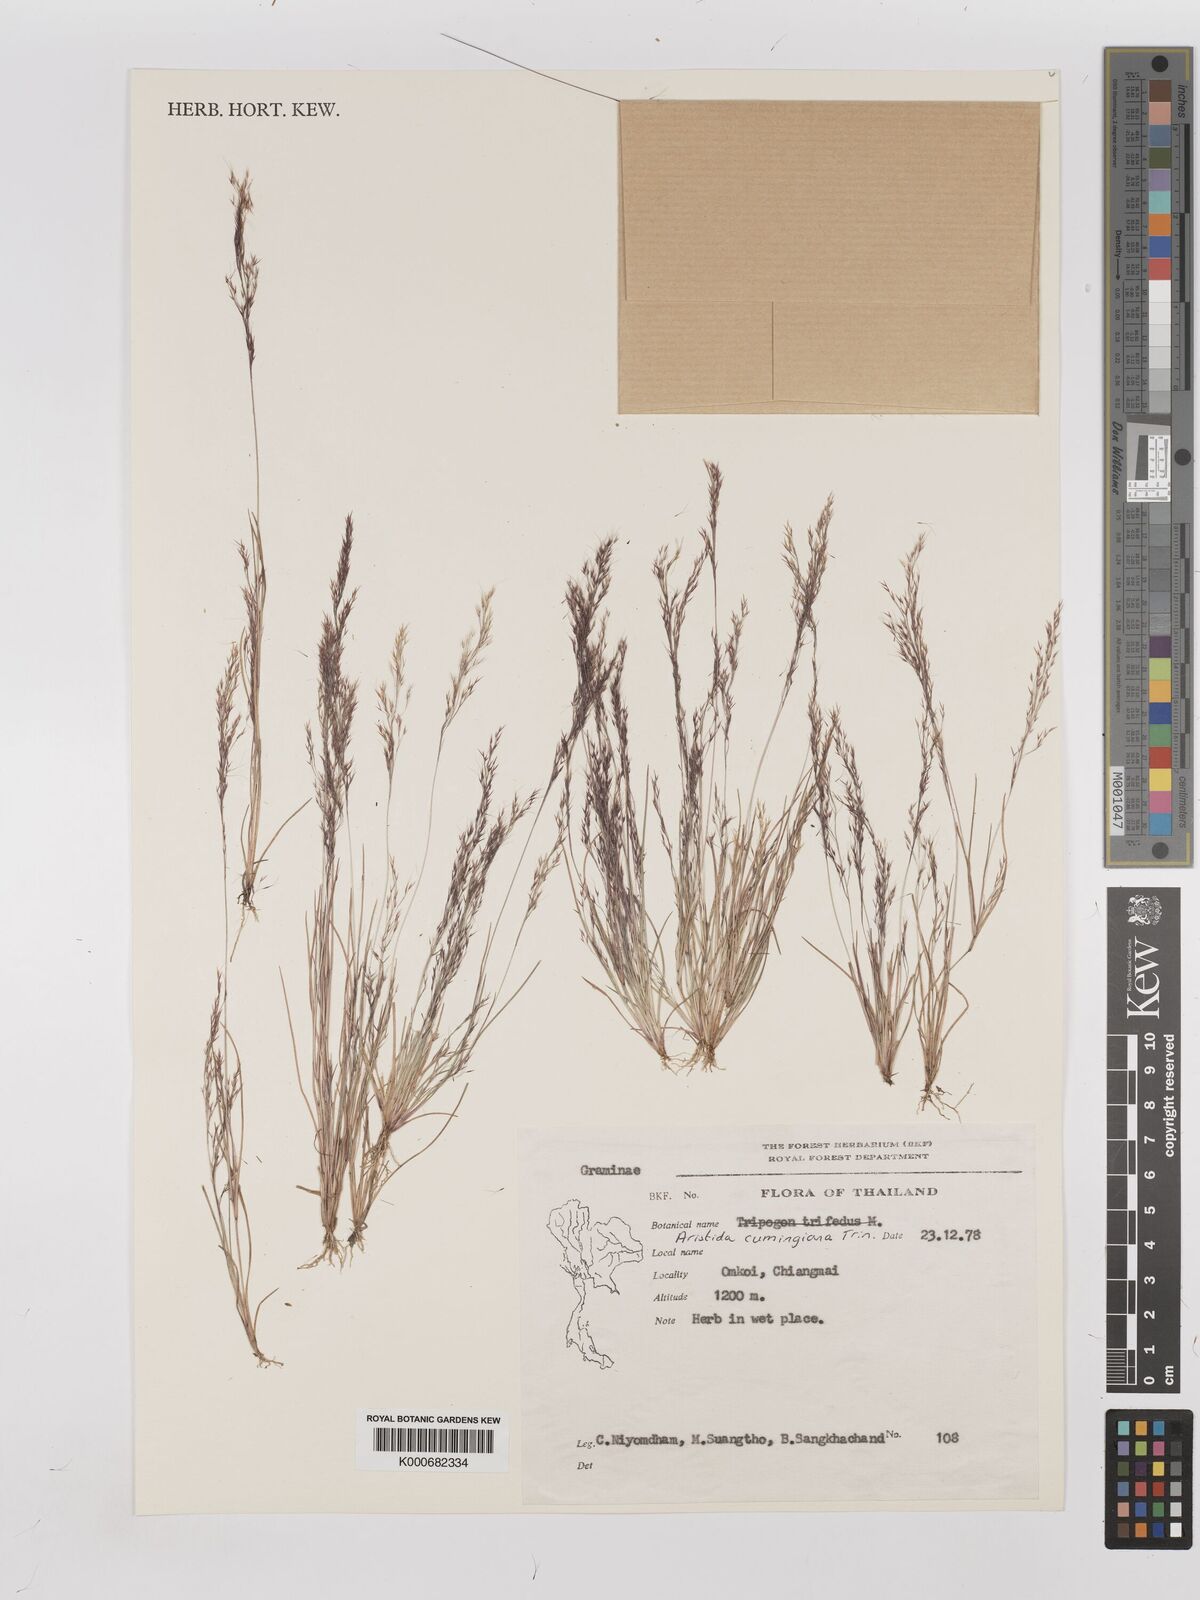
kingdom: Plantae
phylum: Tracheophyta
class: Liliopsida
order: Poales
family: Poaceae
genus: Aristida
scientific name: Aristida cumingiana
